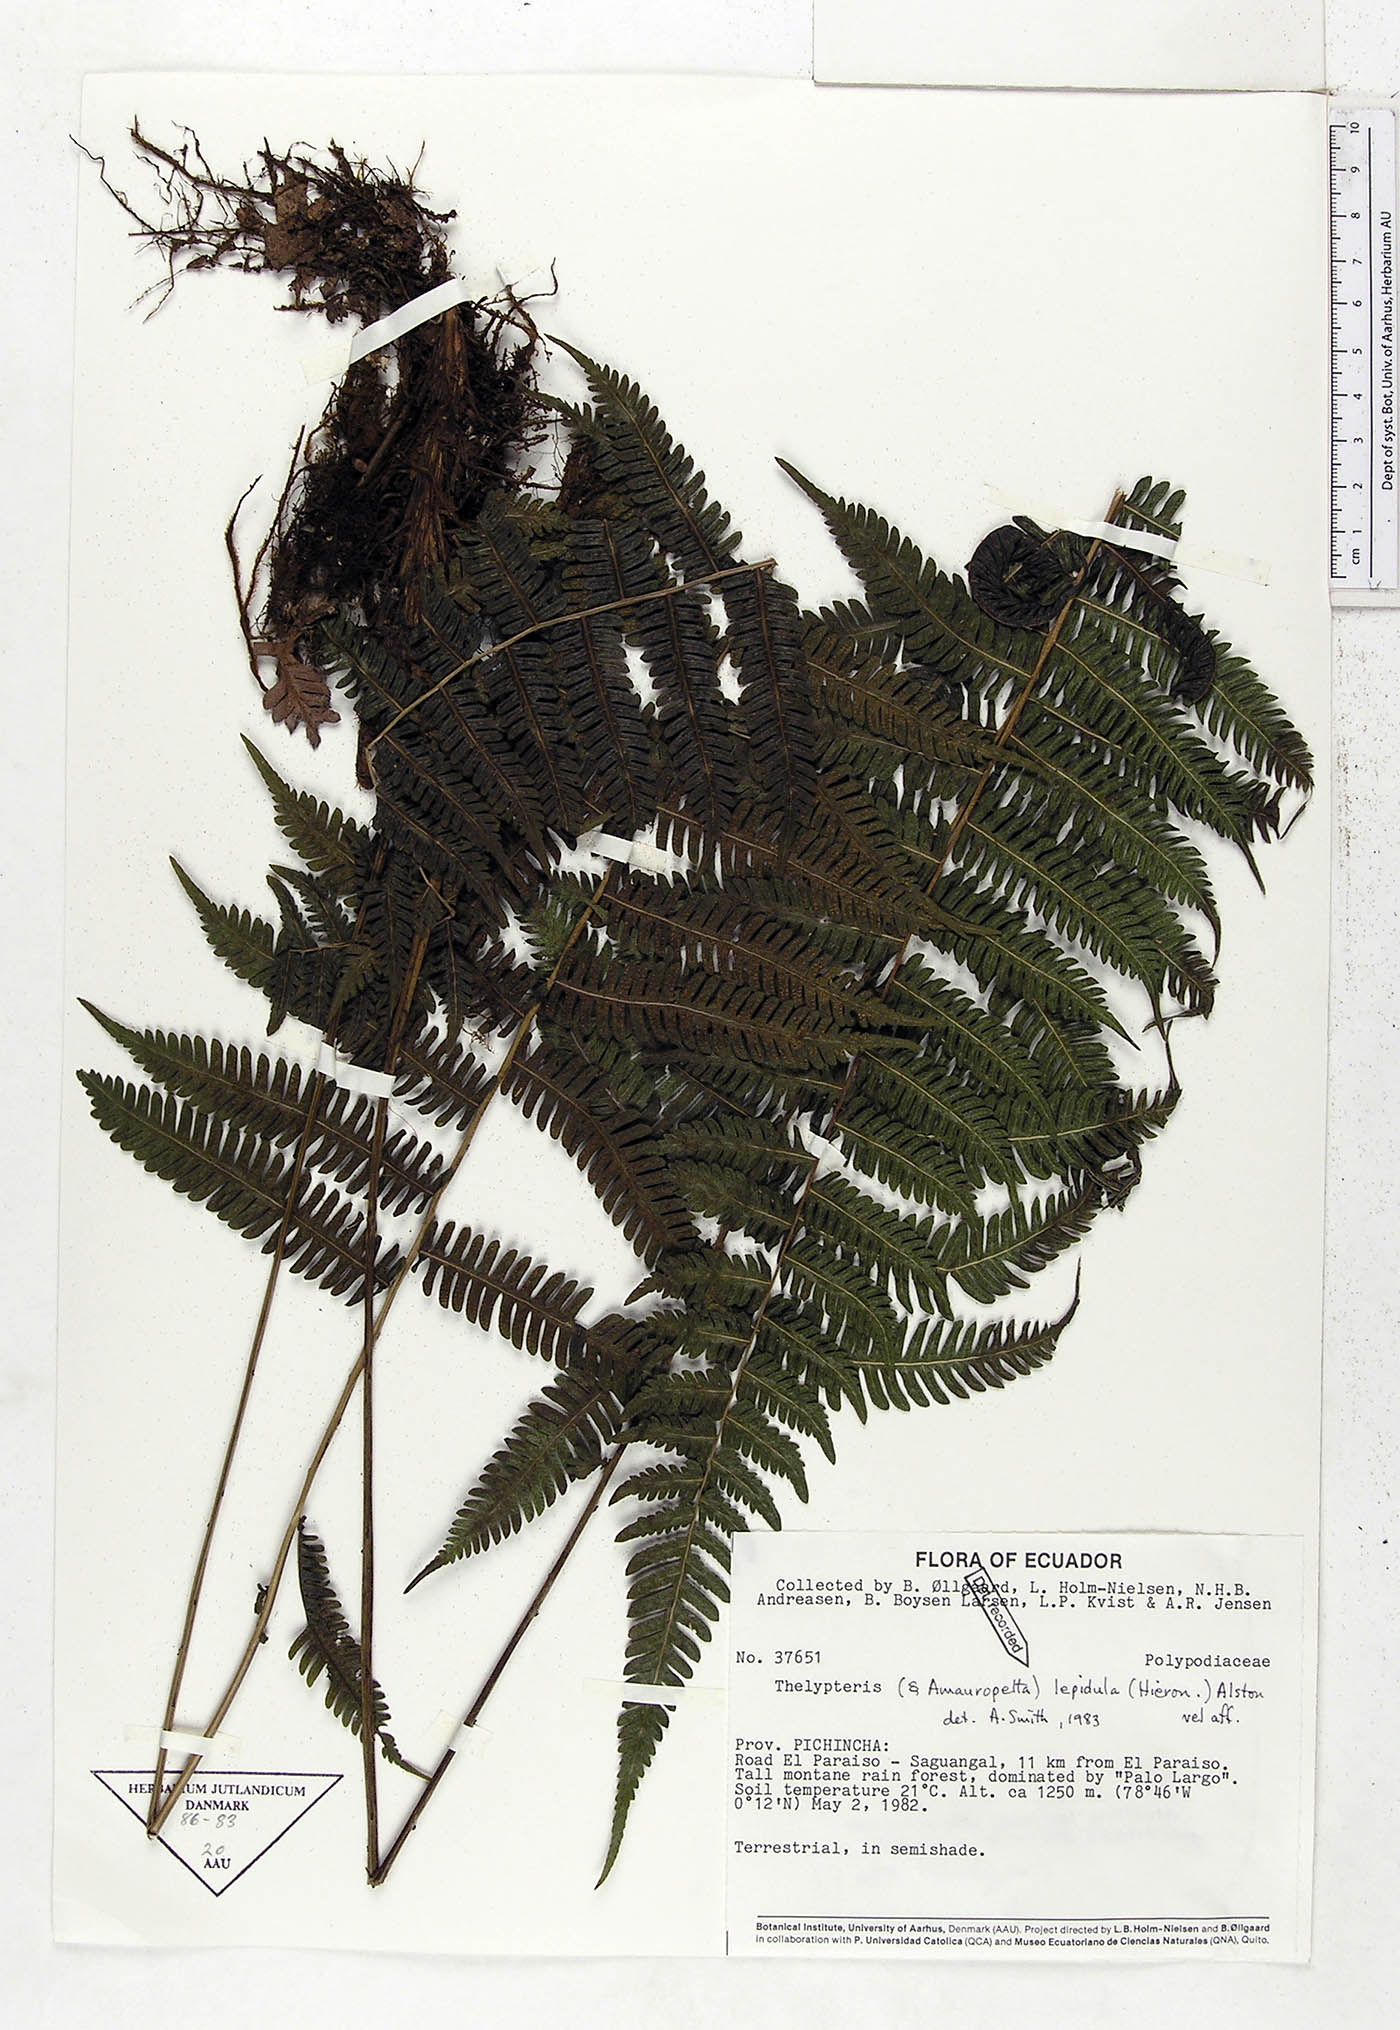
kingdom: Plantae
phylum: Tracheophyta
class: Polypodiopsida
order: Polypodiales
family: Thelypteridaceae
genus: Amauropelta
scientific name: Amauropelta lepidula
